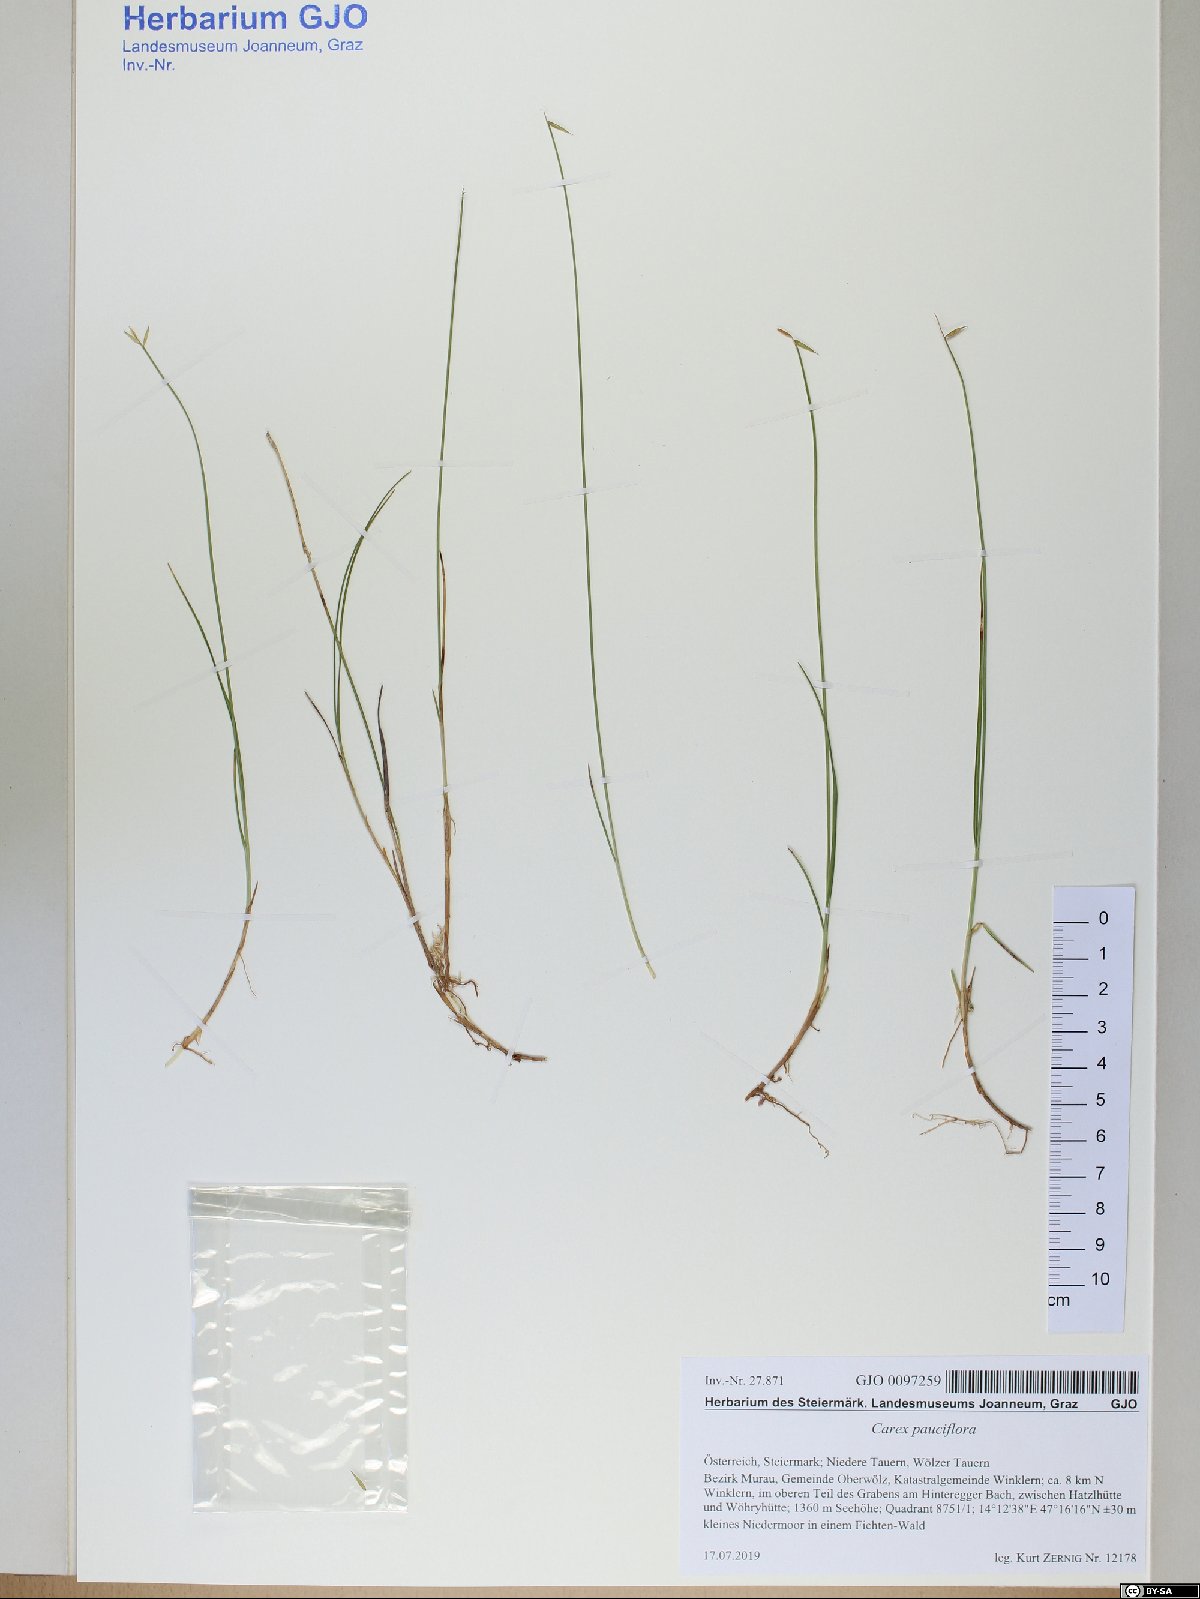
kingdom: Plantae
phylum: Tracheophyta
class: Liliopsida
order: Poales
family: Cyperaceae
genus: Carex
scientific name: Carex pauciflora
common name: Few-flowered sedge
